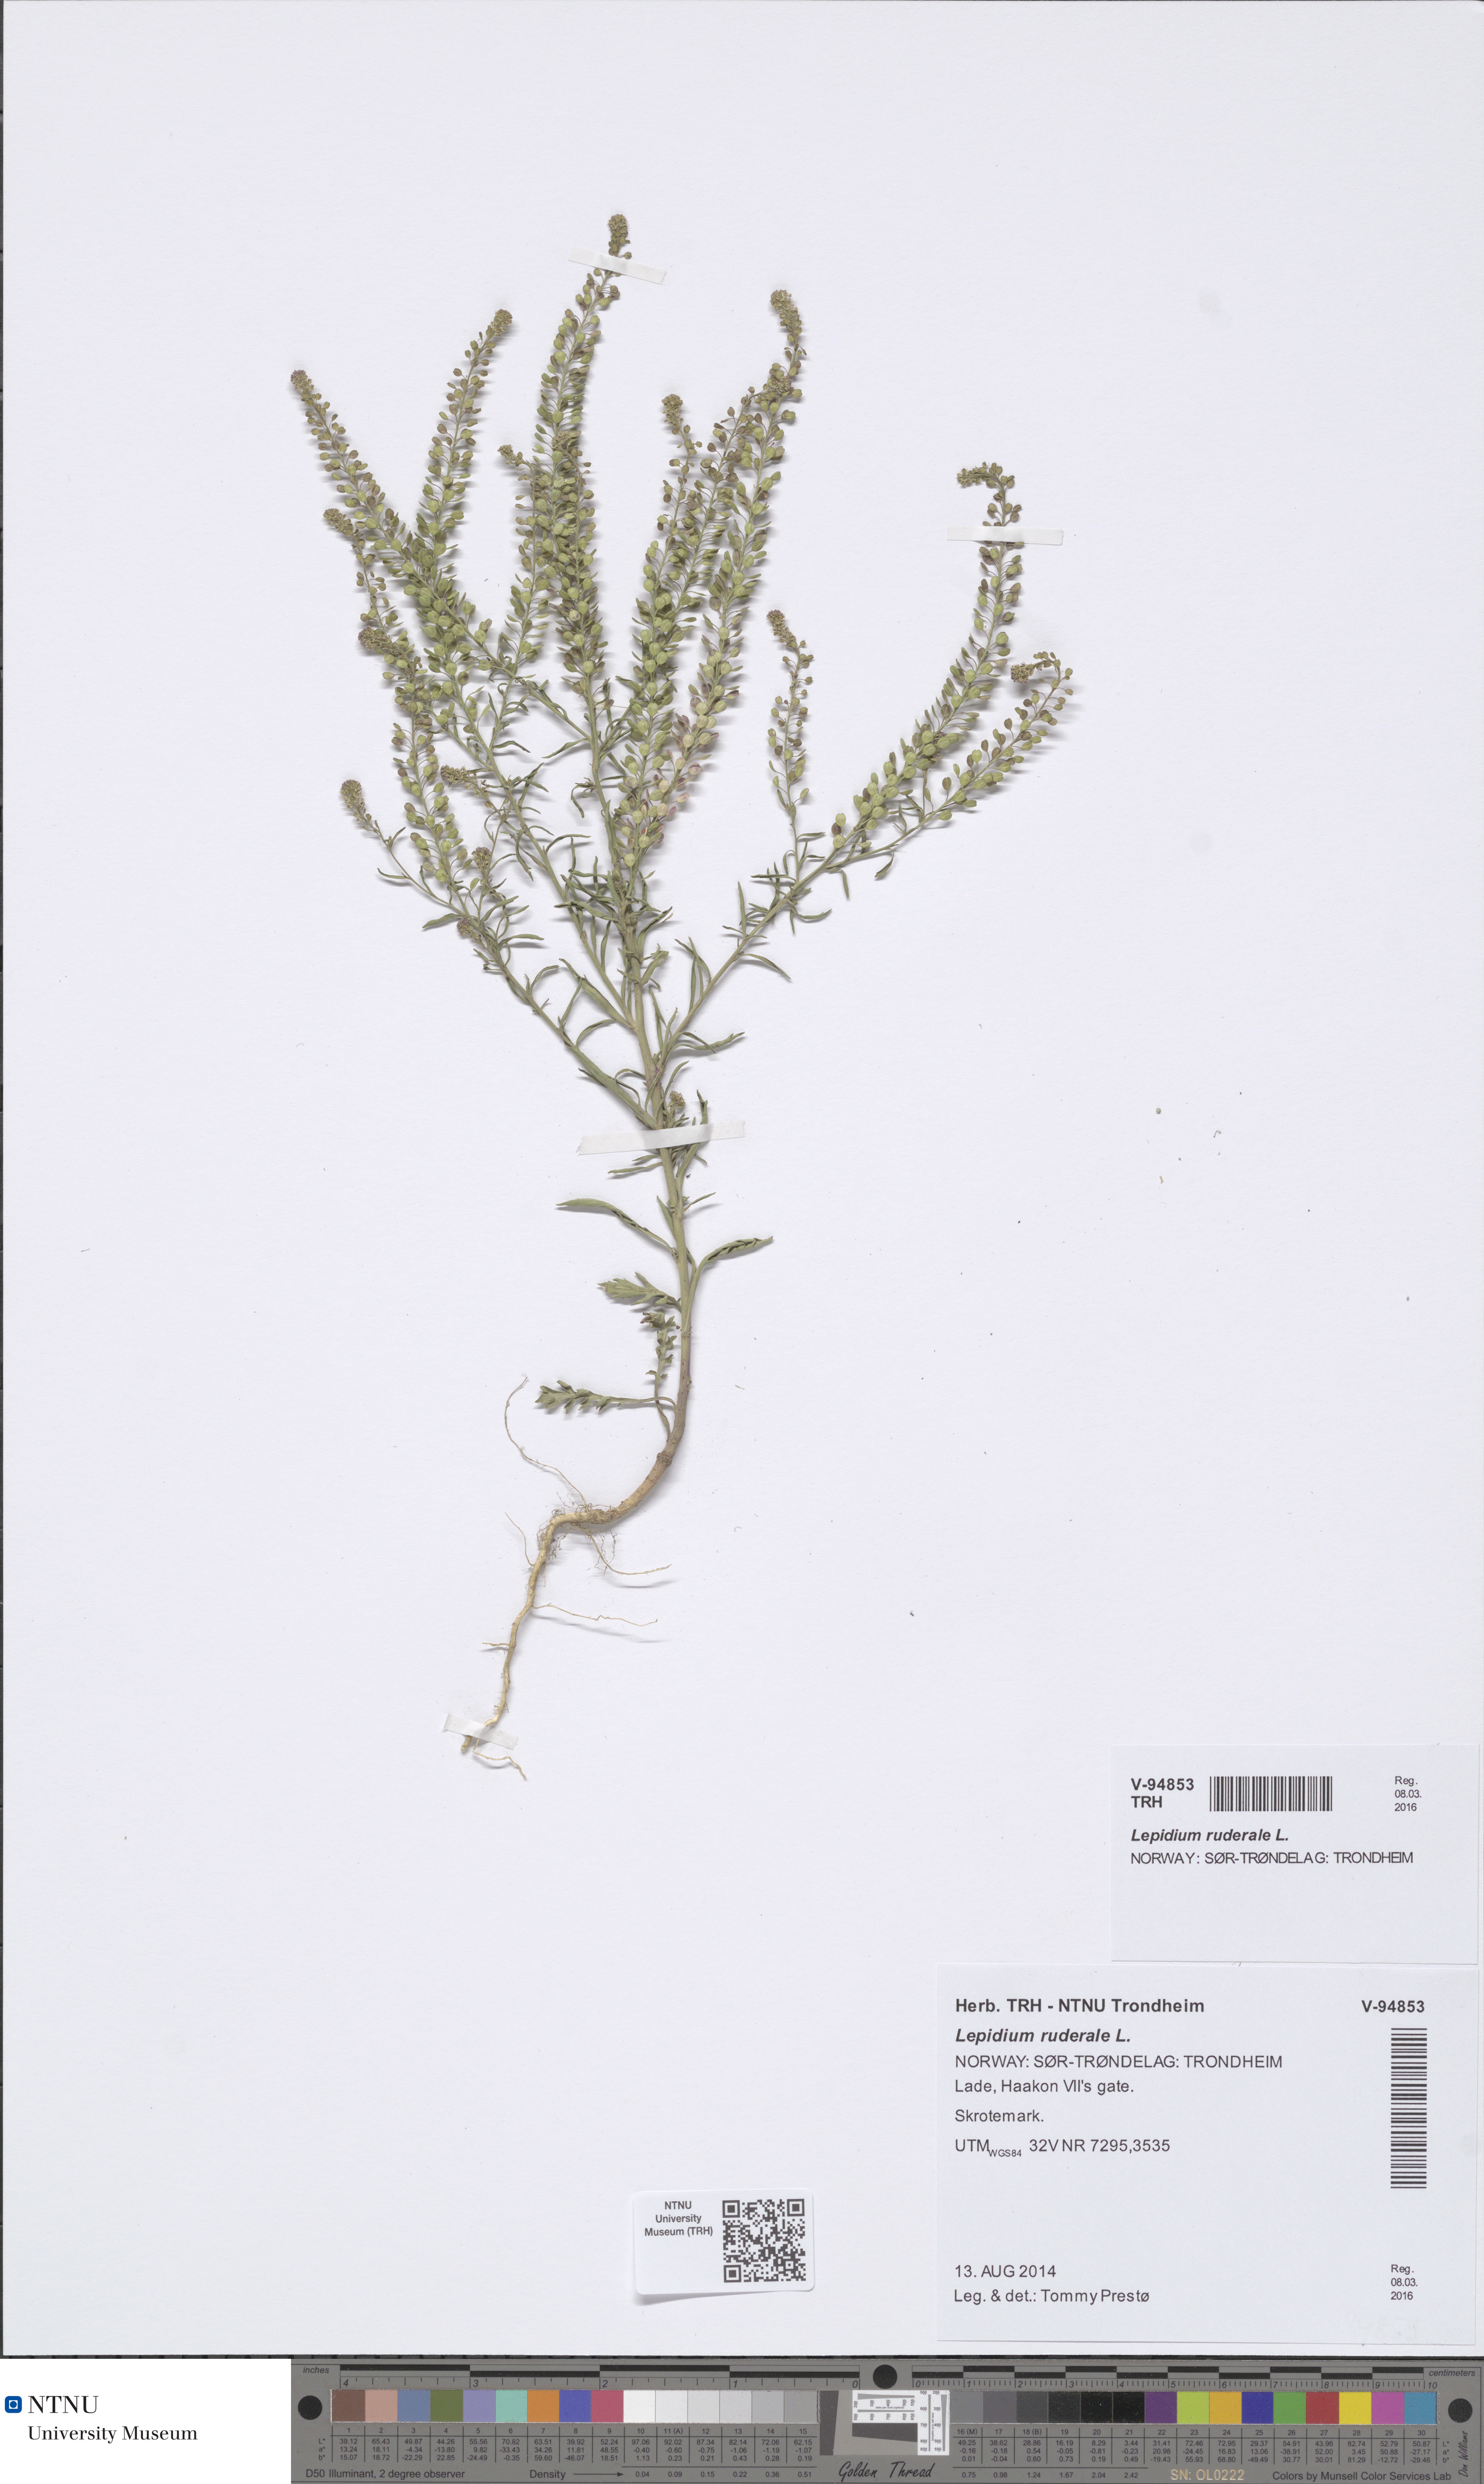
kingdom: Plantae
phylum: Tracheophyta
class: Magnoliopsida
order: Brassicales
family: Brassicaceae
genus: Lepidium
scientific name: Lepidium densiflorum
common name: Miner's pepperwort
